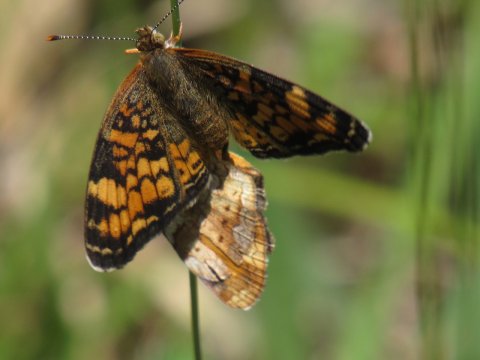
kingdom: Animalia
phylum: Arthropoda
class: Insecta
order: Lepidoptera
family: Nymphalidae
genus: Phyciodes
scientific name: Phyciodes tharos
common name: Pearl Crescent
